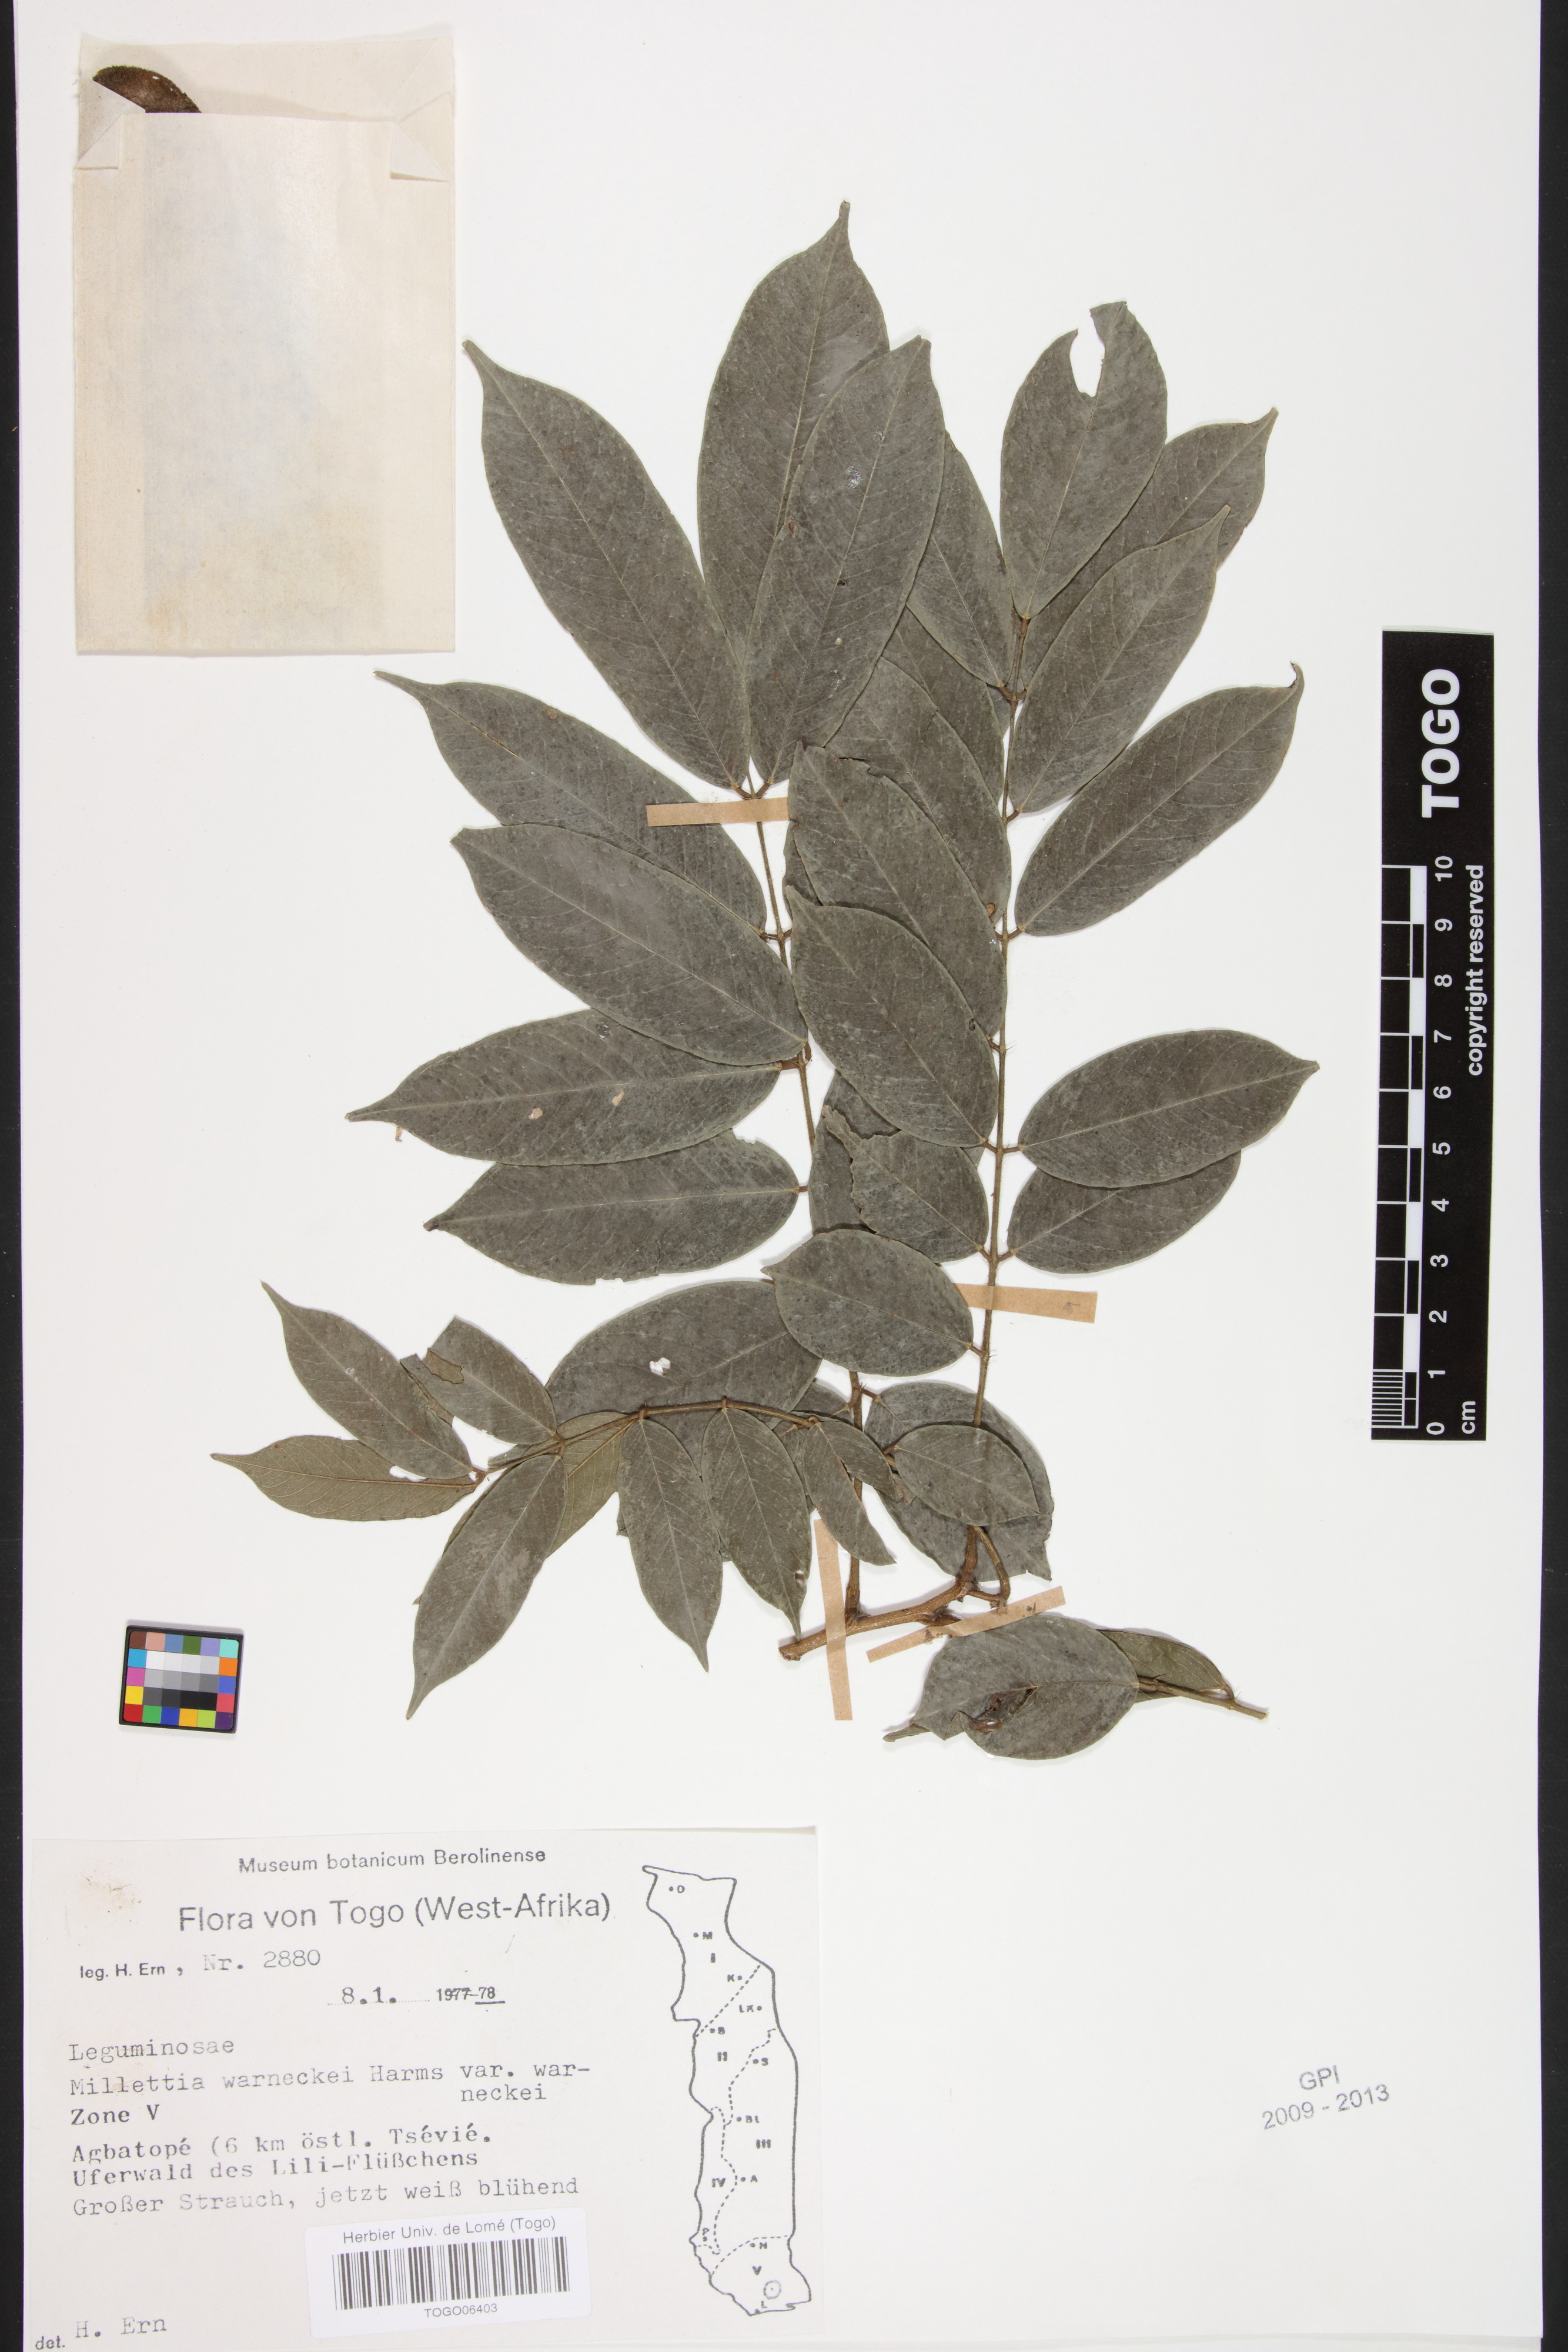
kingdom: Plantae
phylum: Tracheophyta
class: Magnoliopsida
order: Fabales
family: Fabaceae
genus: Millettia
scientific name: Millettia warneckei
